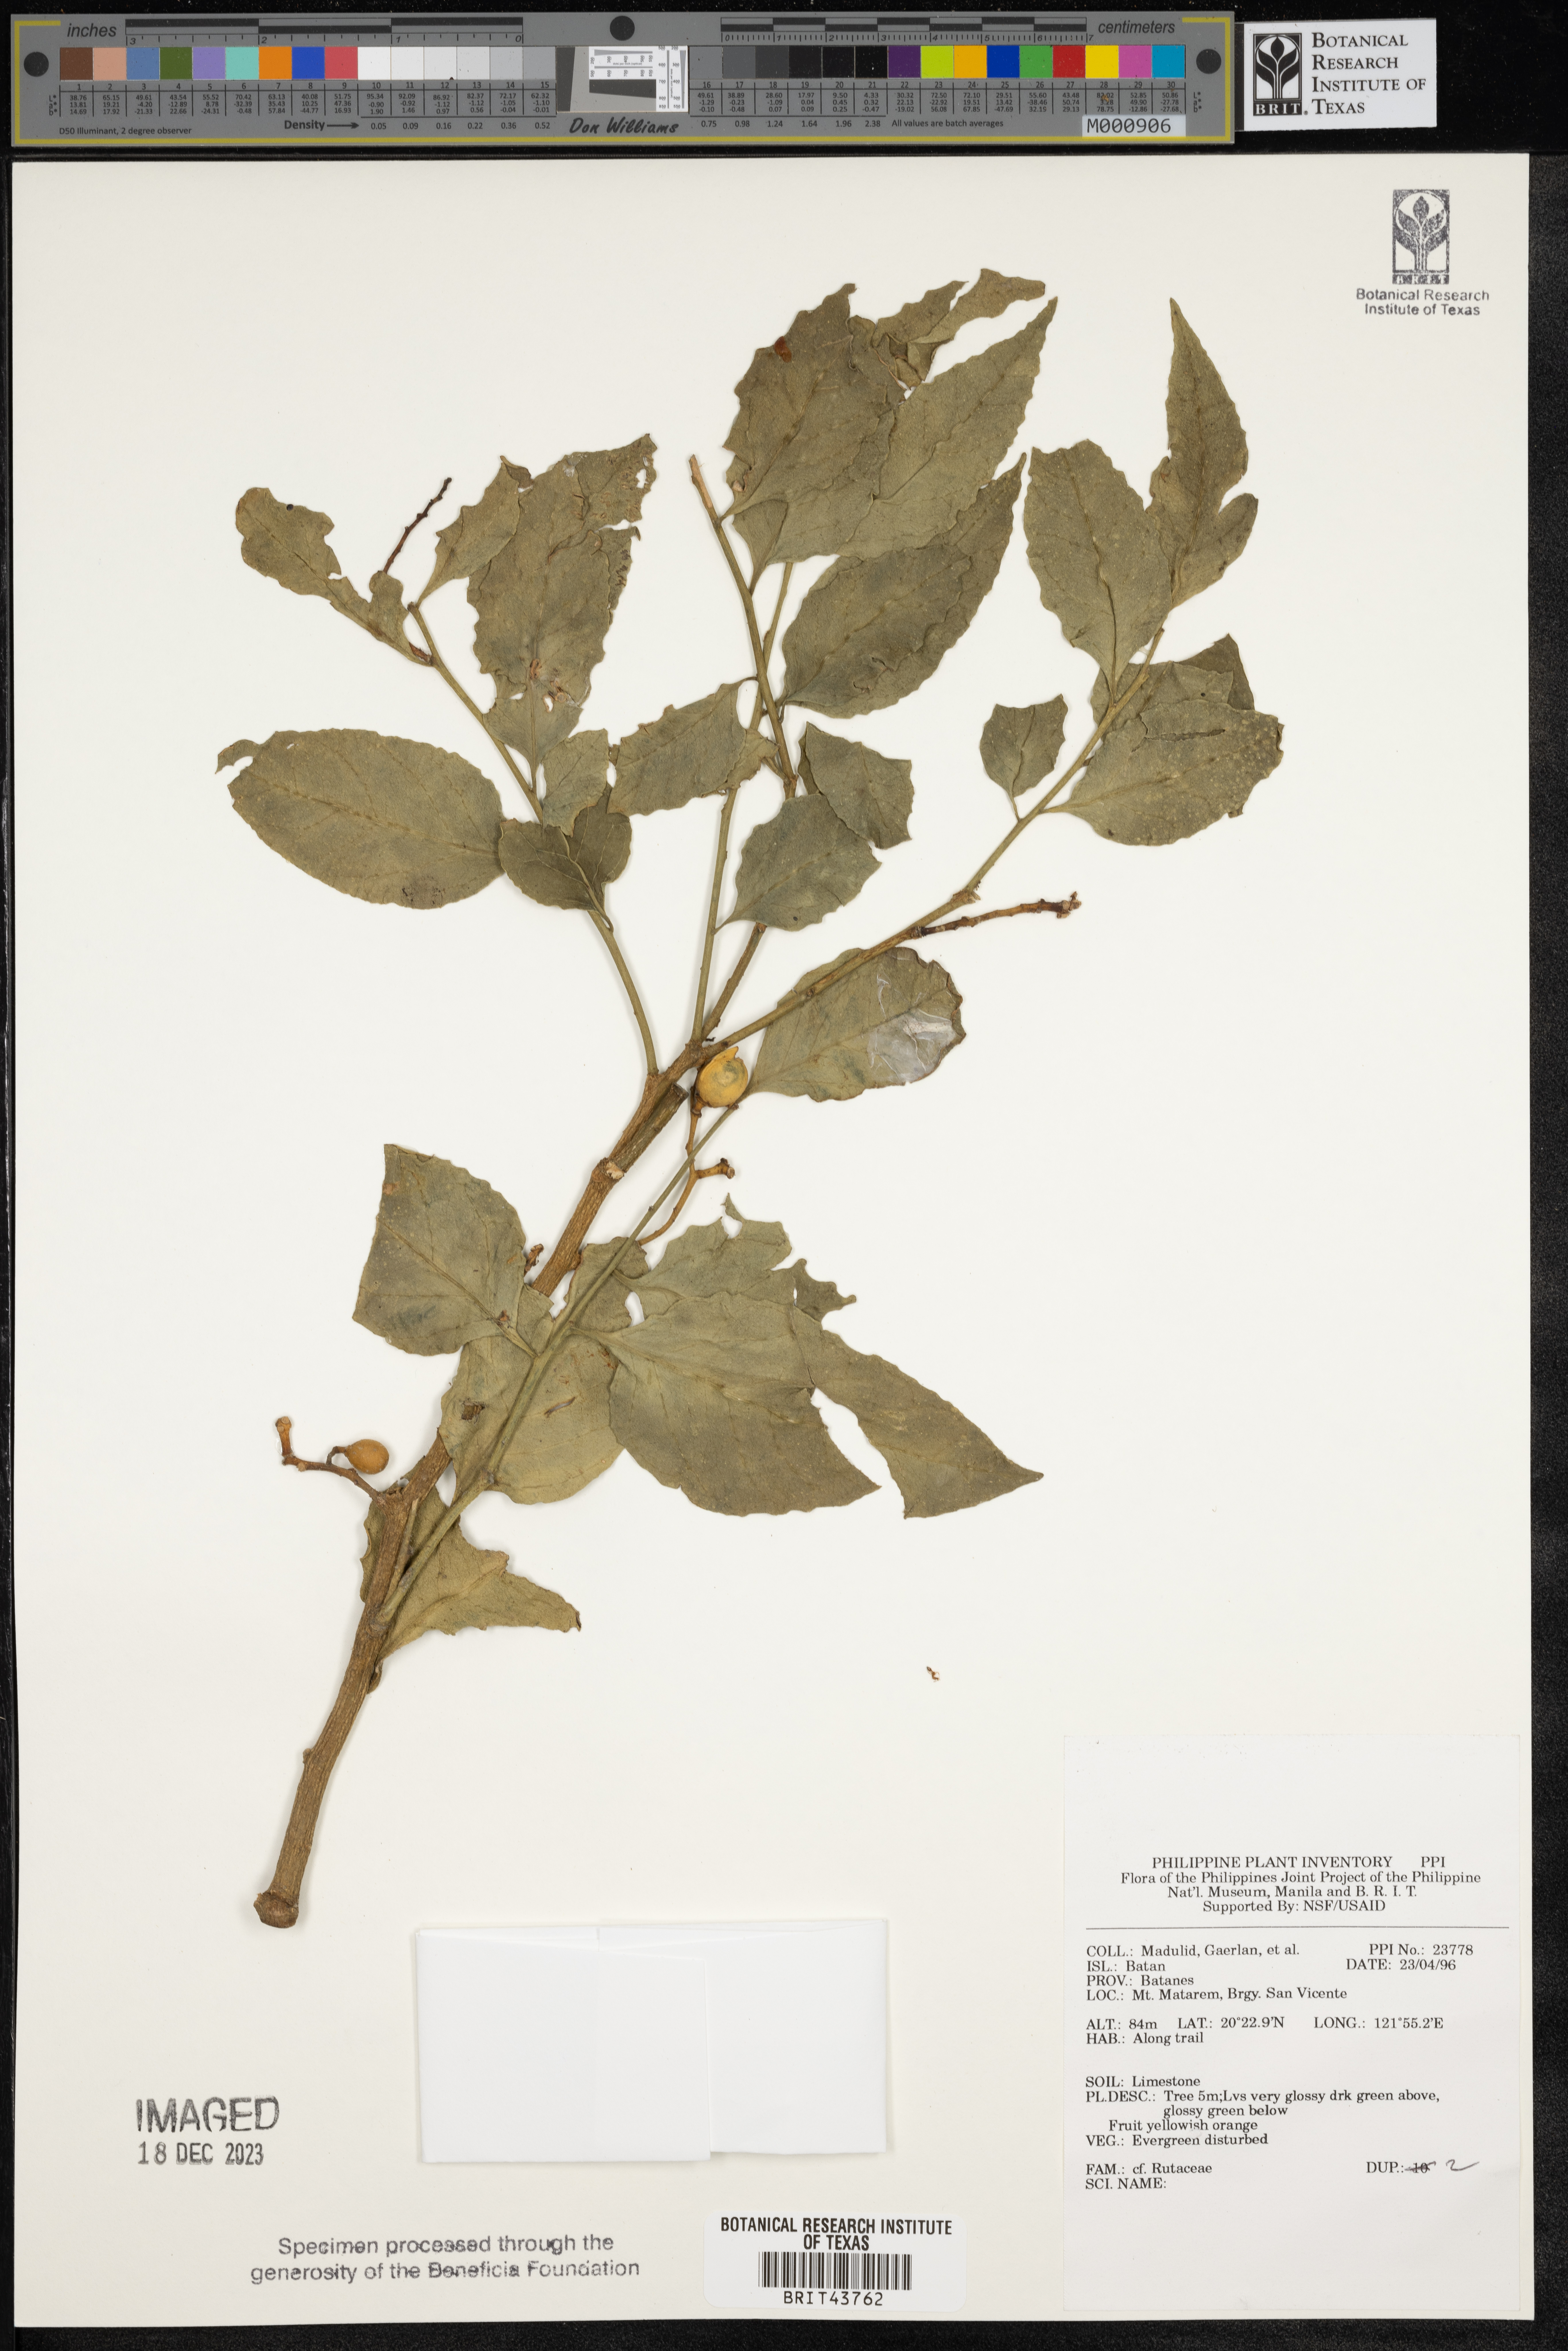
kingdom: Plantae
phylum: Tracheophyta
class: Magnoliopsida
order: Sapindales
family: Rutaceae
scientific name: Rutaceae
